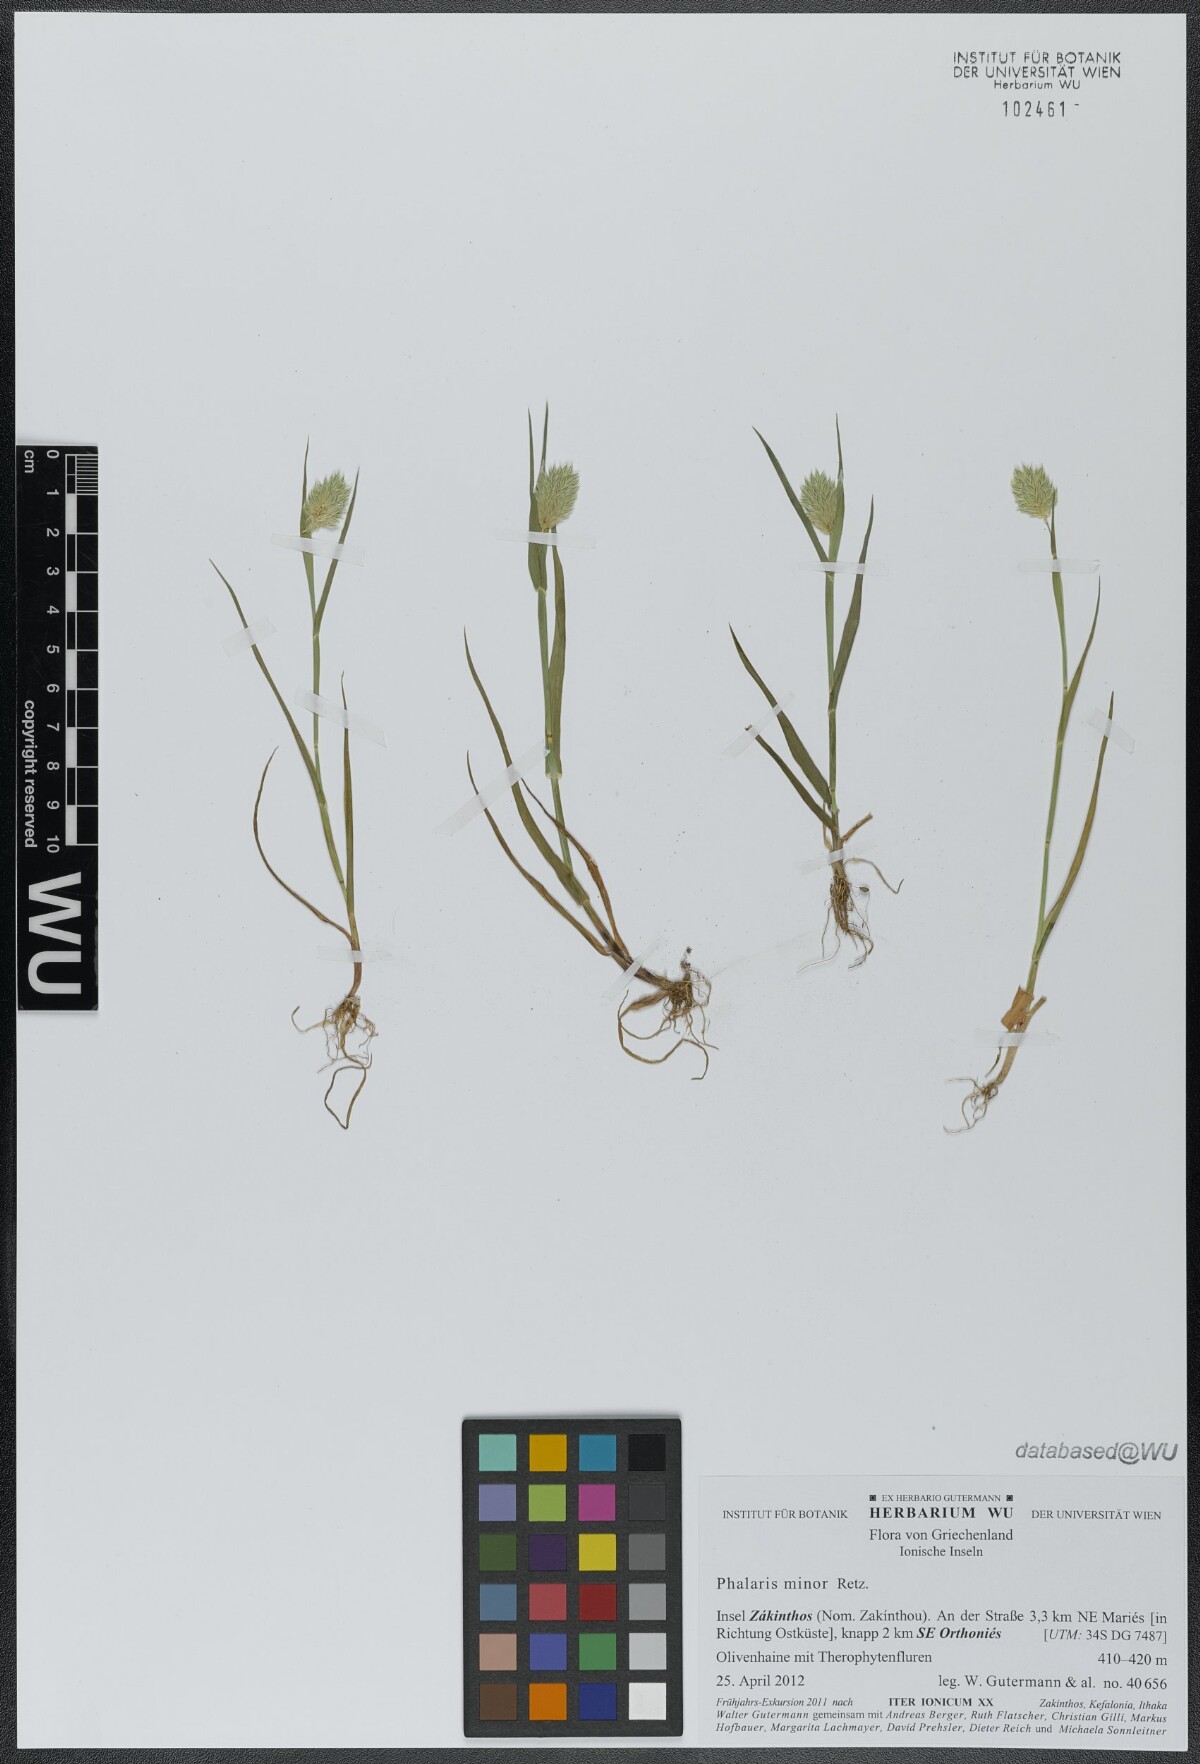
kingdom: Plantae
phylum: Tracheophyta
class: Liliopsida
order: Poales
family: Poaceae
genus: Phalaris
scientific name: Phalaris minor
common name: Littleseed canarygrass
